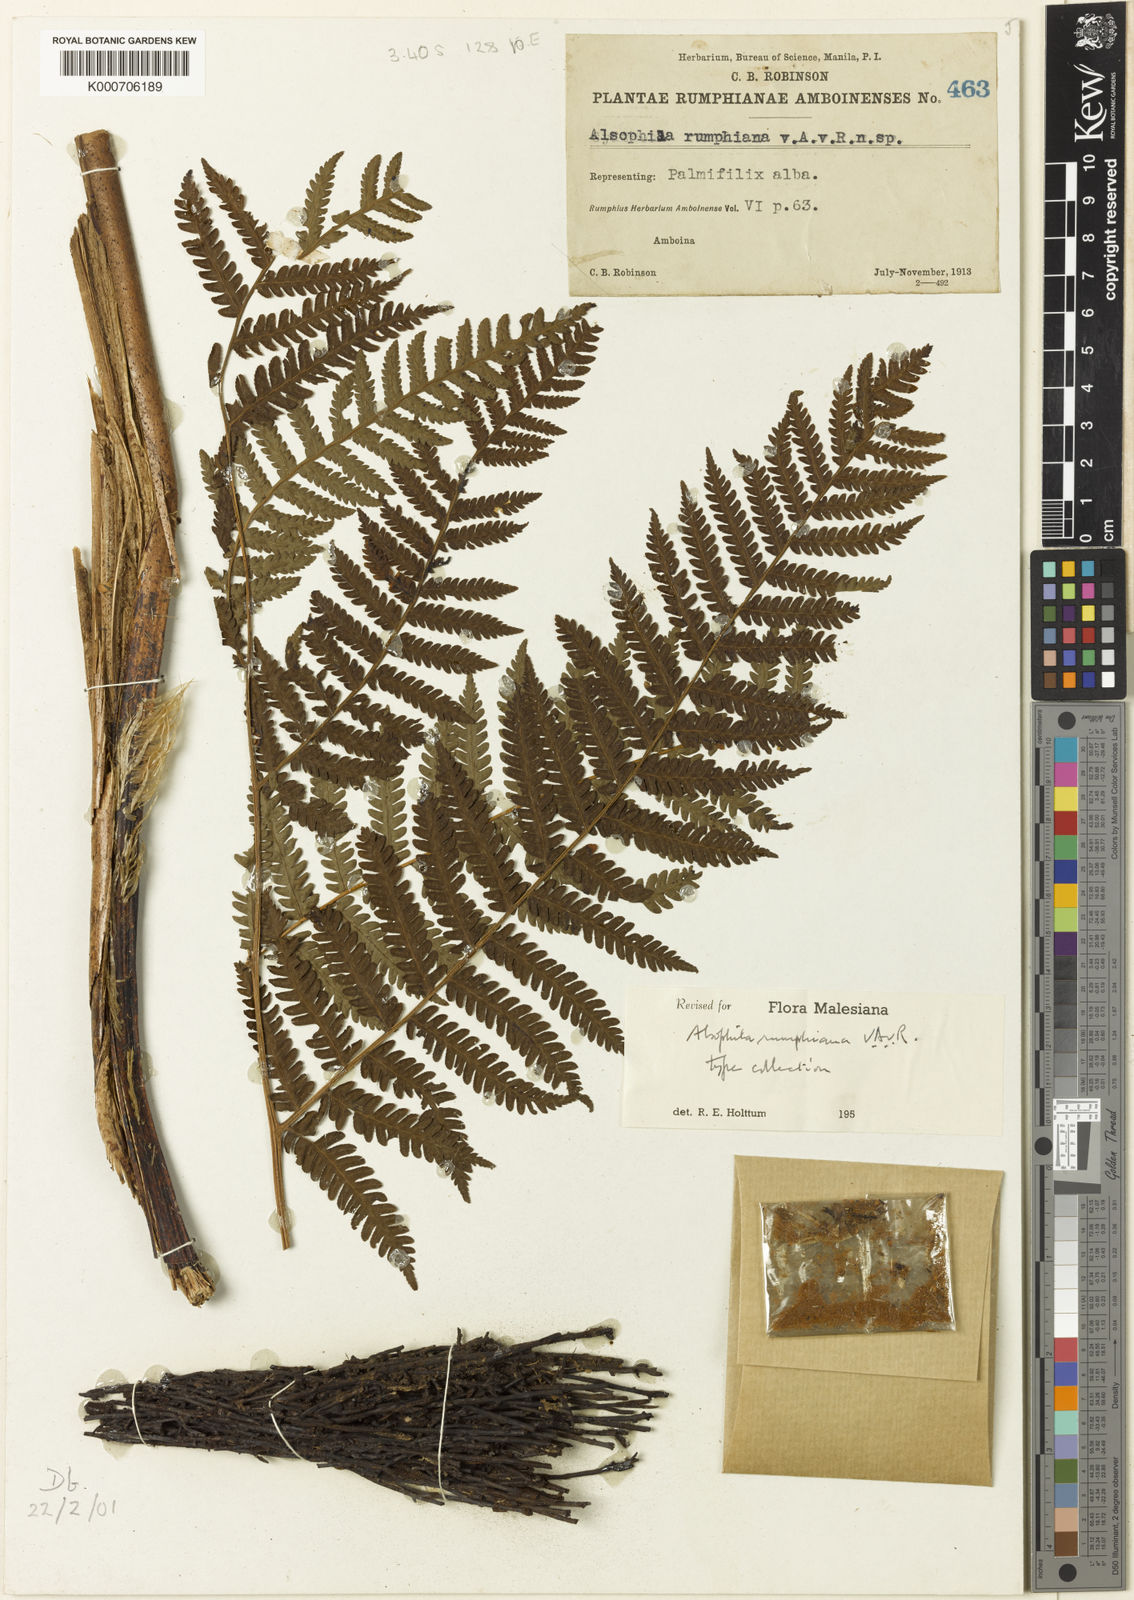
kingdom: Plantae
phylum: Tracheophyta
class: Polypodiopsida
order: Cyatheales
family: Cyatheaceae
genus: Sphaeropteris
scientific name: Sphaeropteris felina
